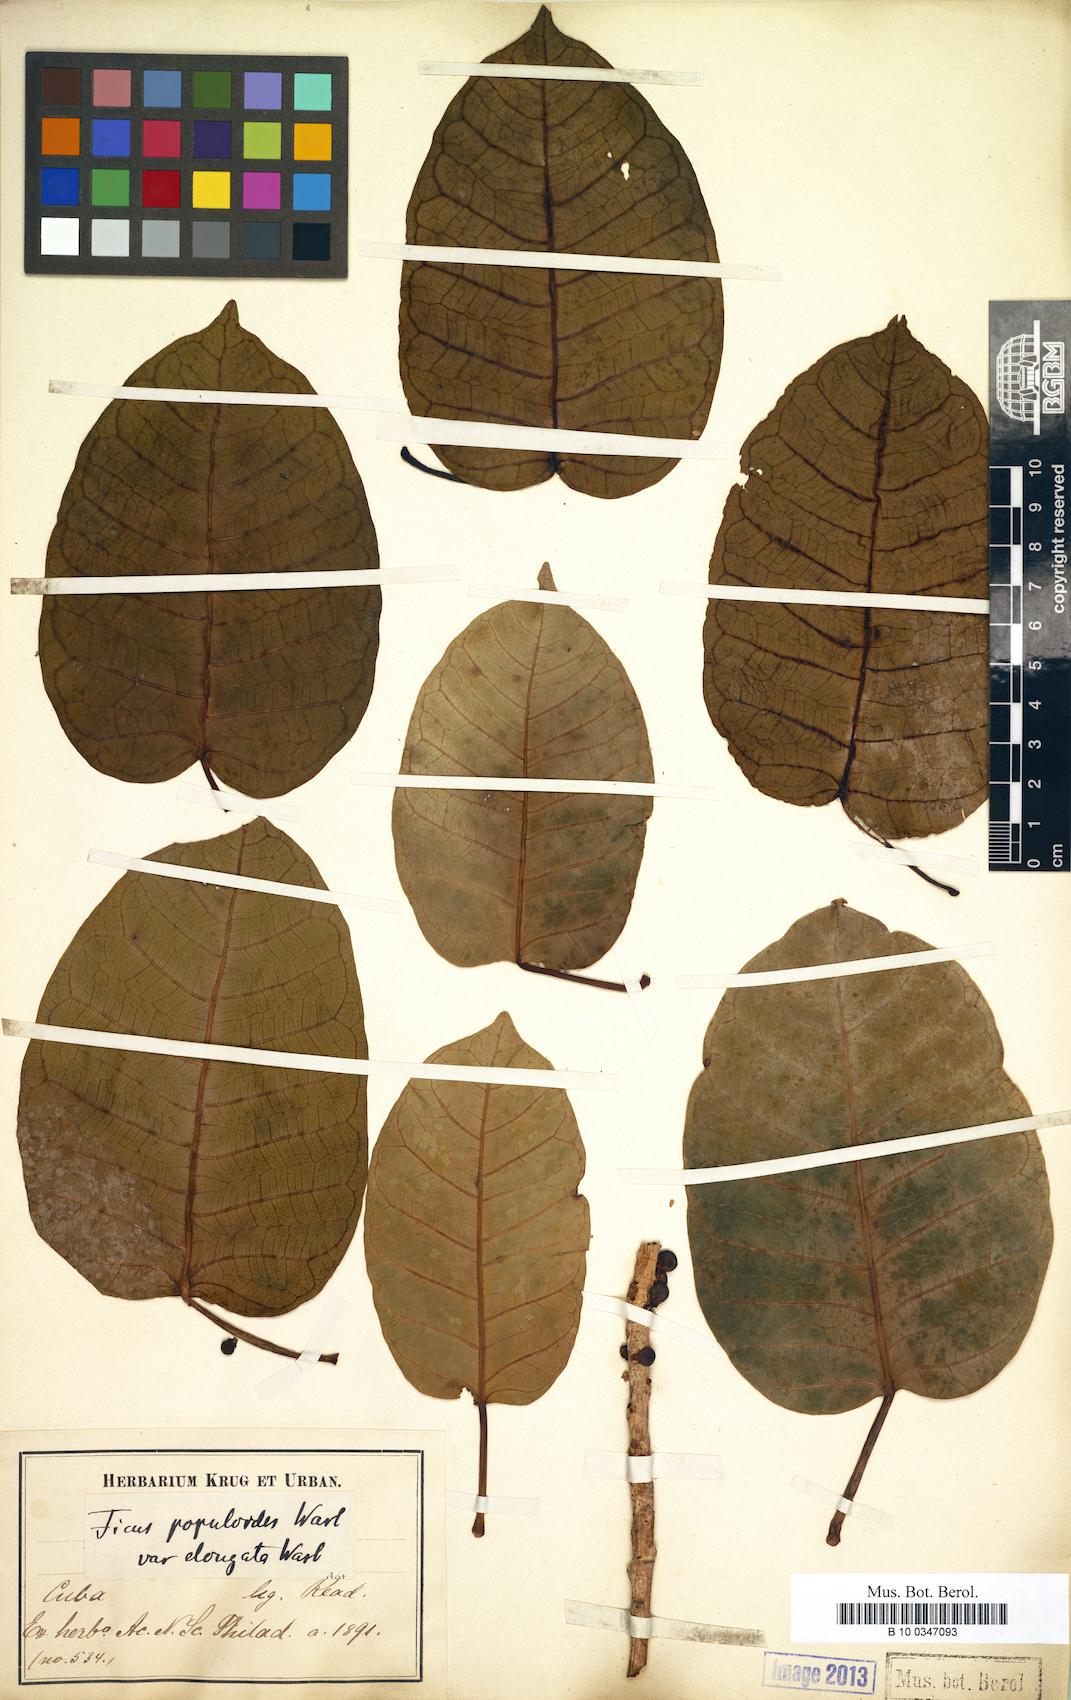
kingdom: Plantae
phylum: Tracheophyta
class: Magnoliopsida
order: Rosales
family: Moraceae
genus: Ficus
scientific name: Ficus citrifolia
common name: Strangler fig
